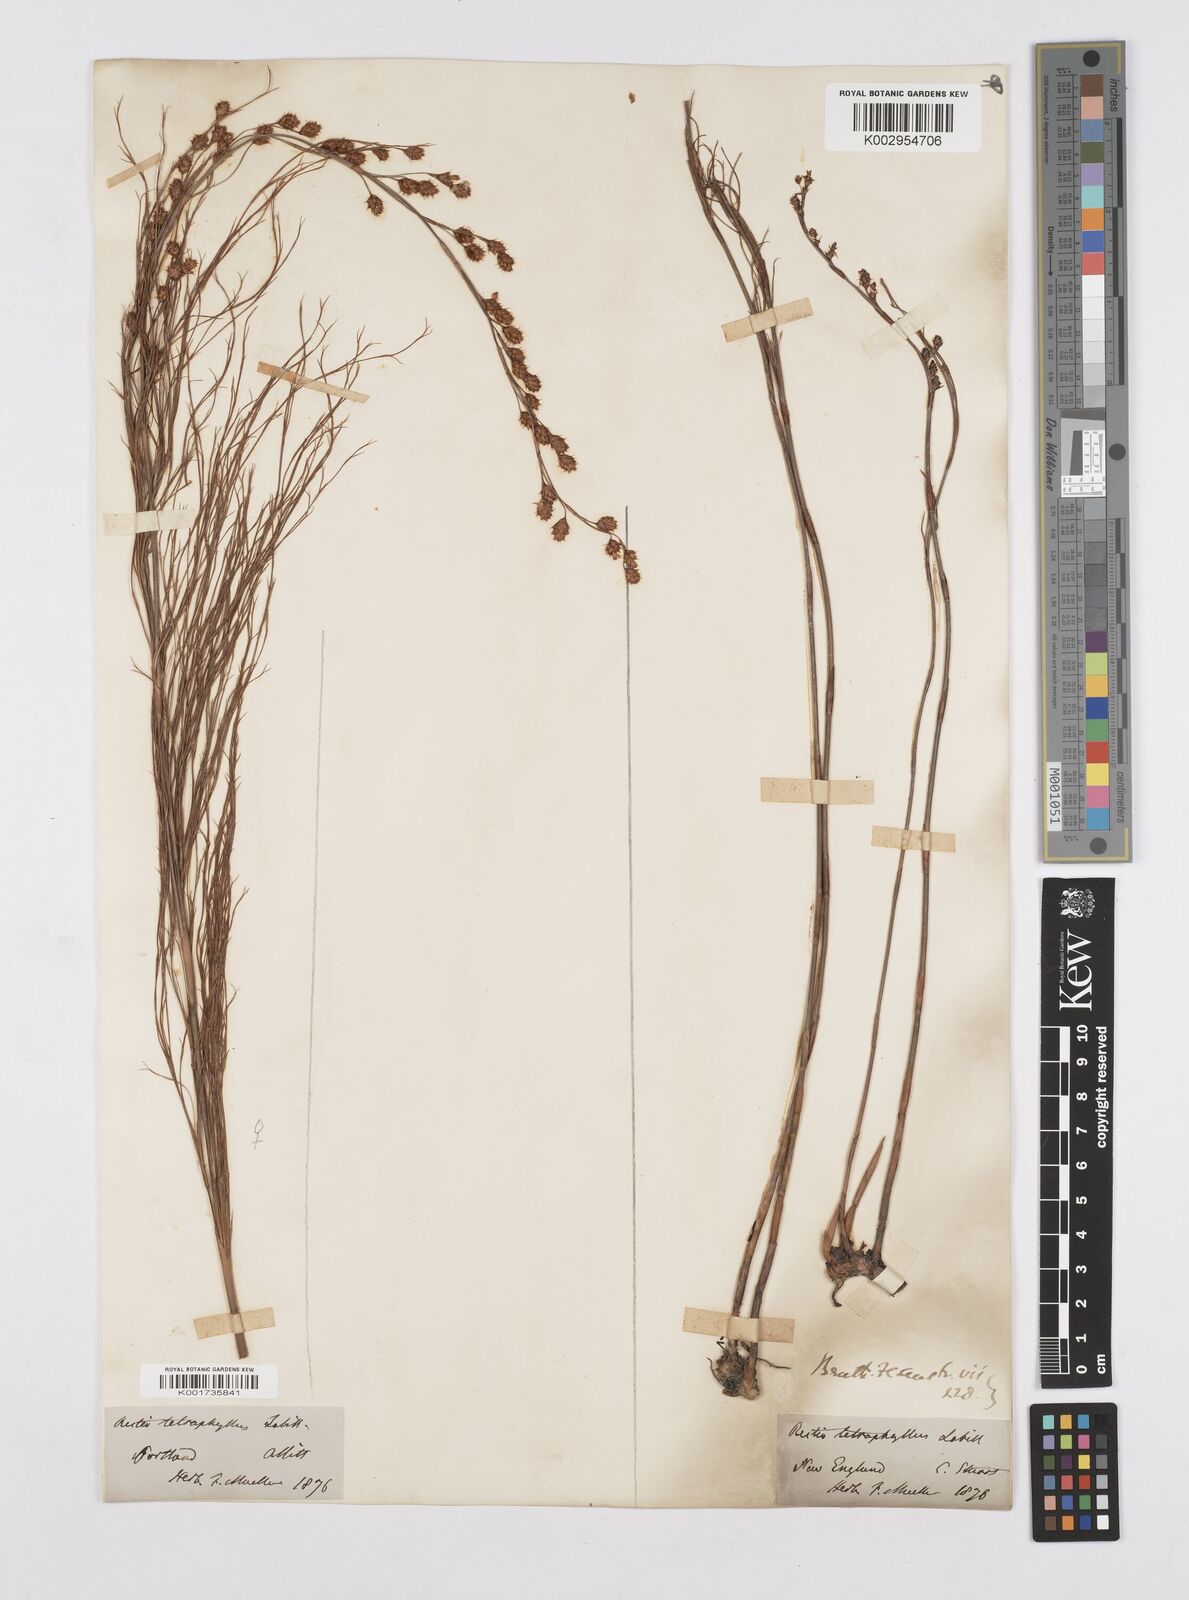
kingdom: Plantae
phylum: Tracheophyta
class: Liliopsida
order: Poales
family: Restionaceae
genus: Baloskion
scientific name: Baloskion tetraphyllum
